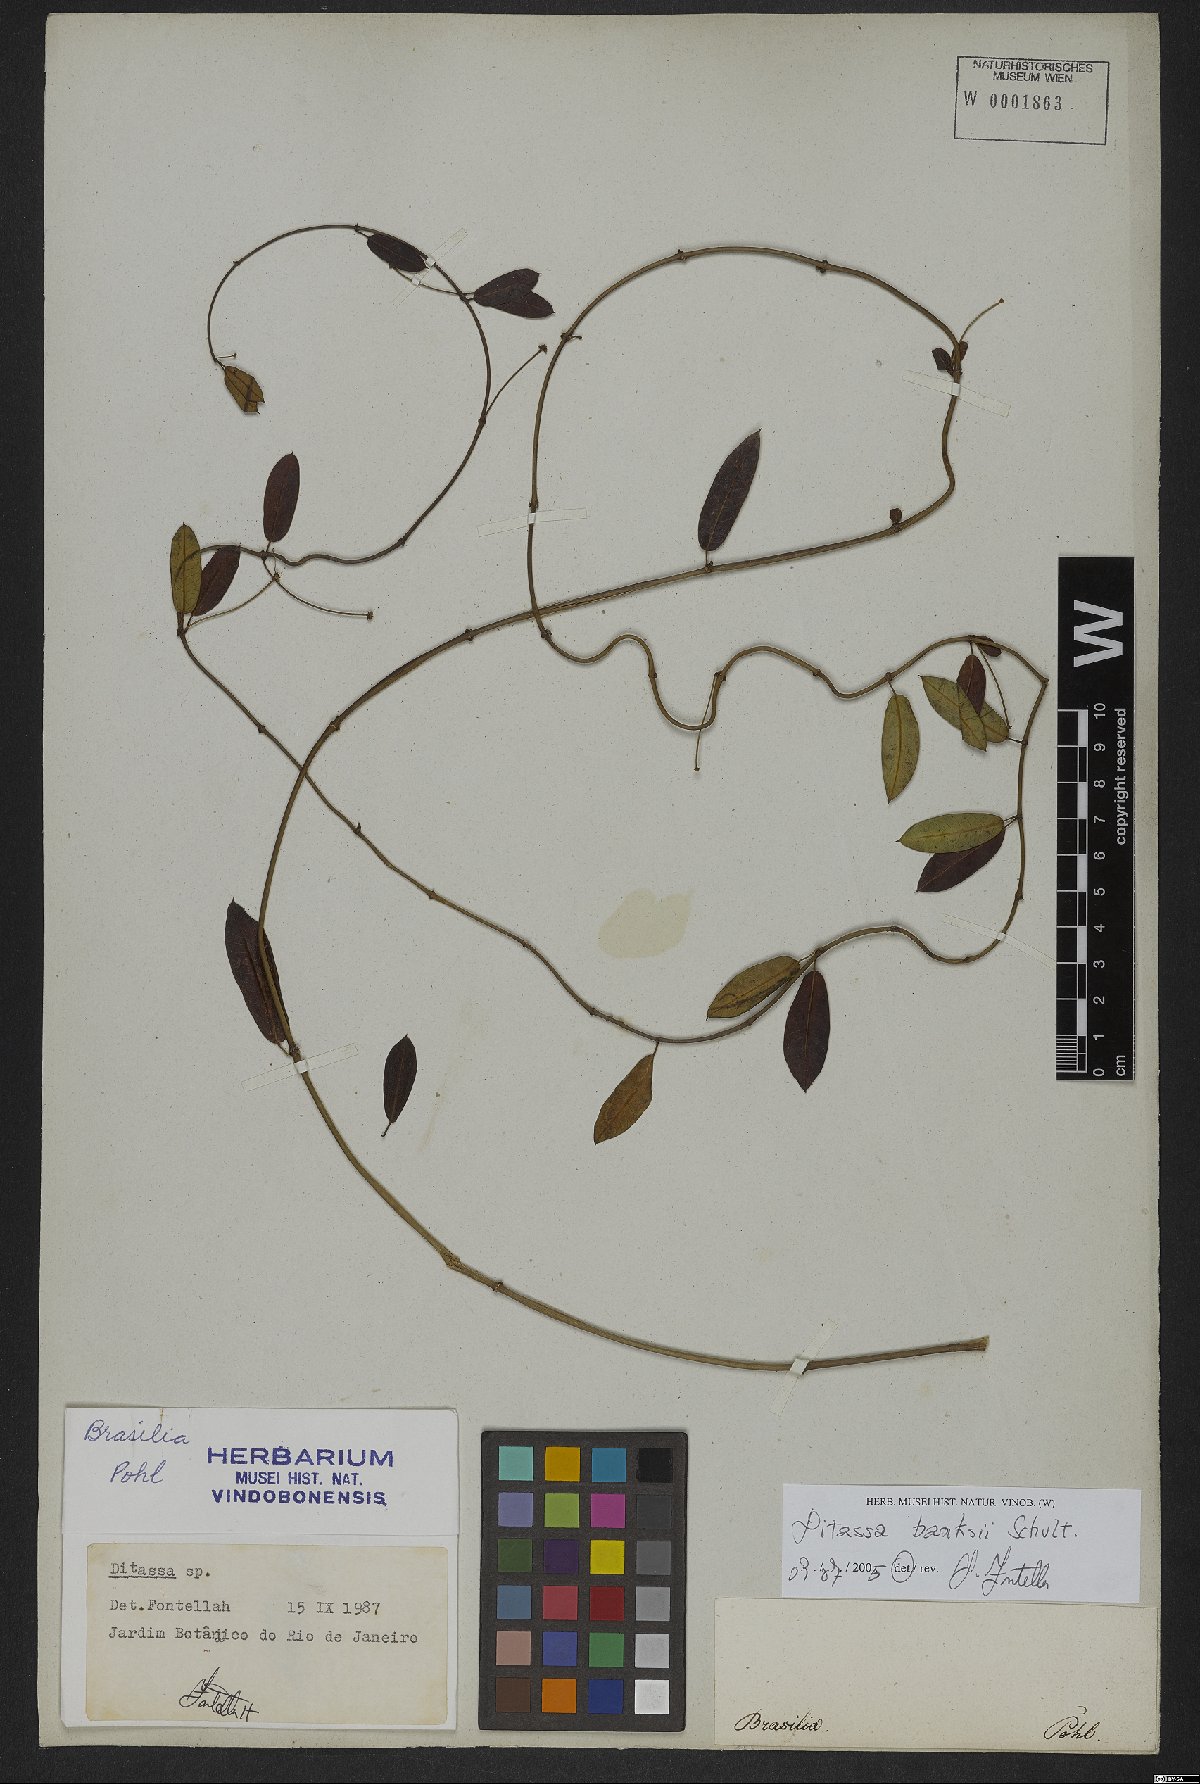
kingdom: Plantae
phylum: Tracheophyta
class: Magnoliopsida
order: Gentianales
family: Apocynaceae
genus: Ditassa
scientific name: Ditassa banksii
